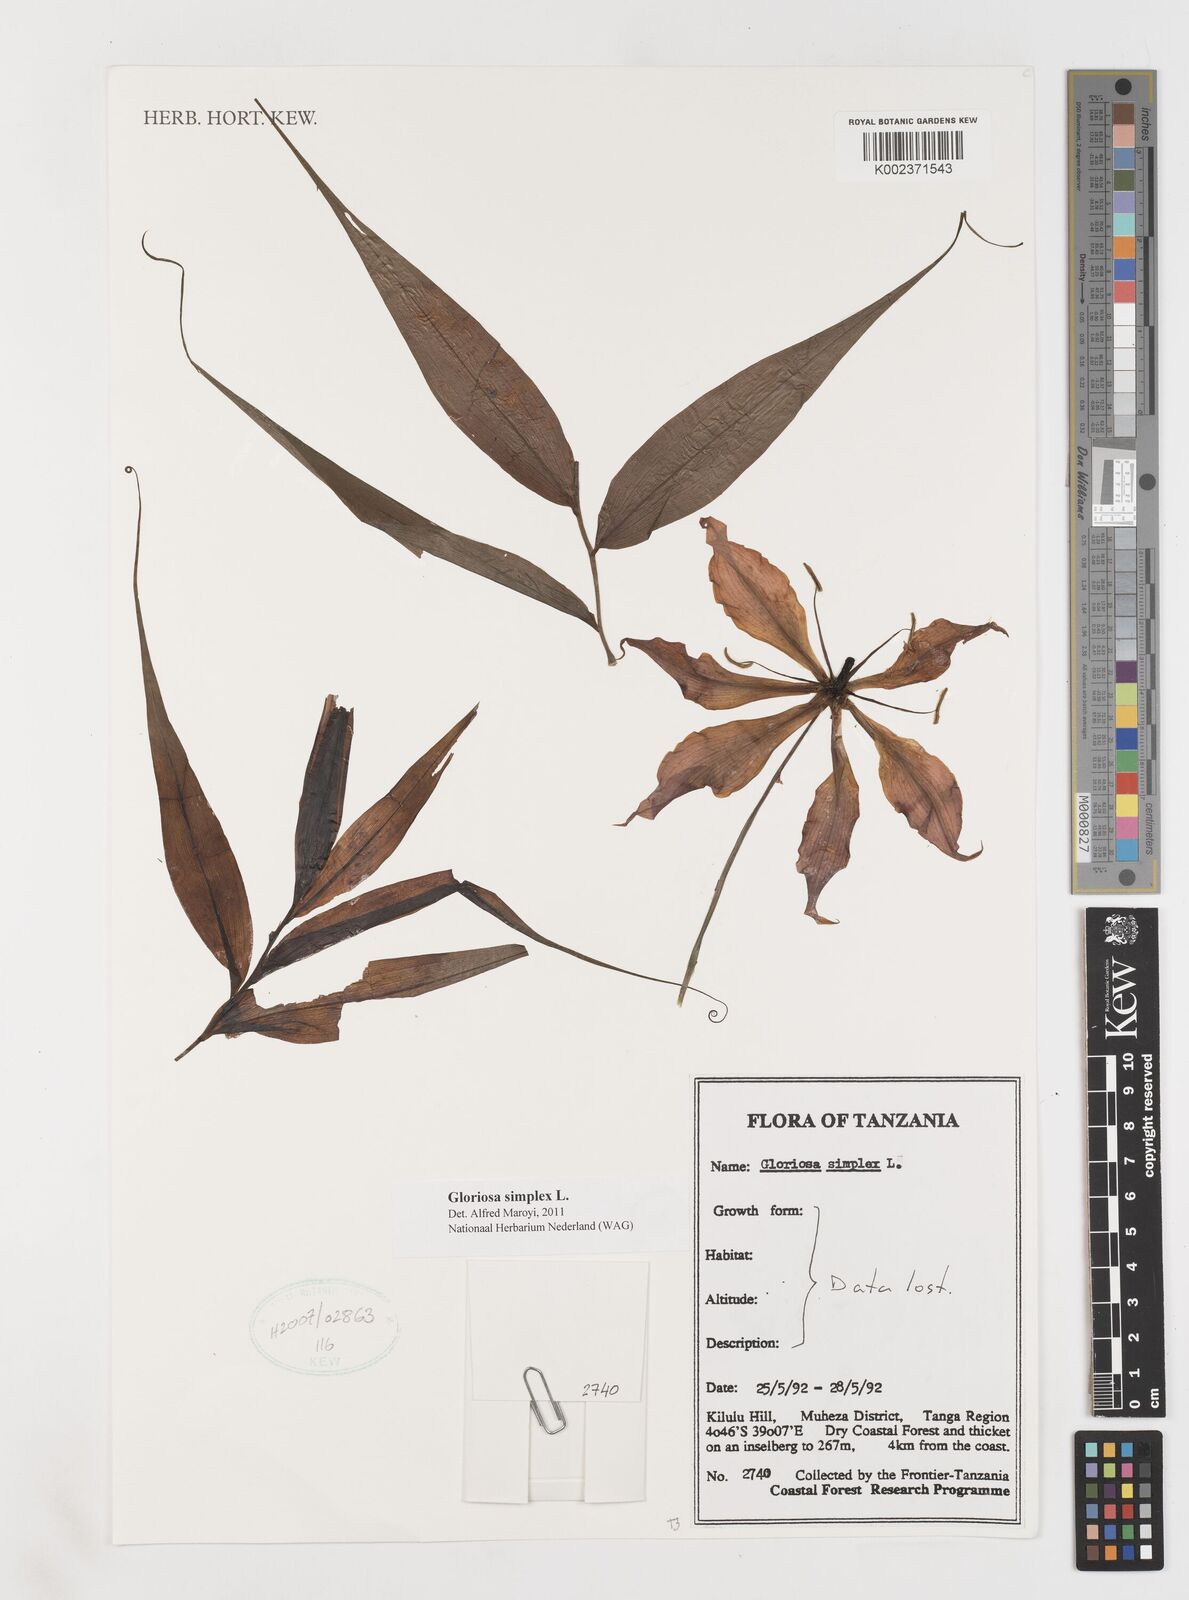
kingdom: Plantae
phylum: Tracheophyta
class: Liliopsida
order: Liliales
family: Colchicaceae
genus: Gloriosa
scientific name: Gloriosa simplex
